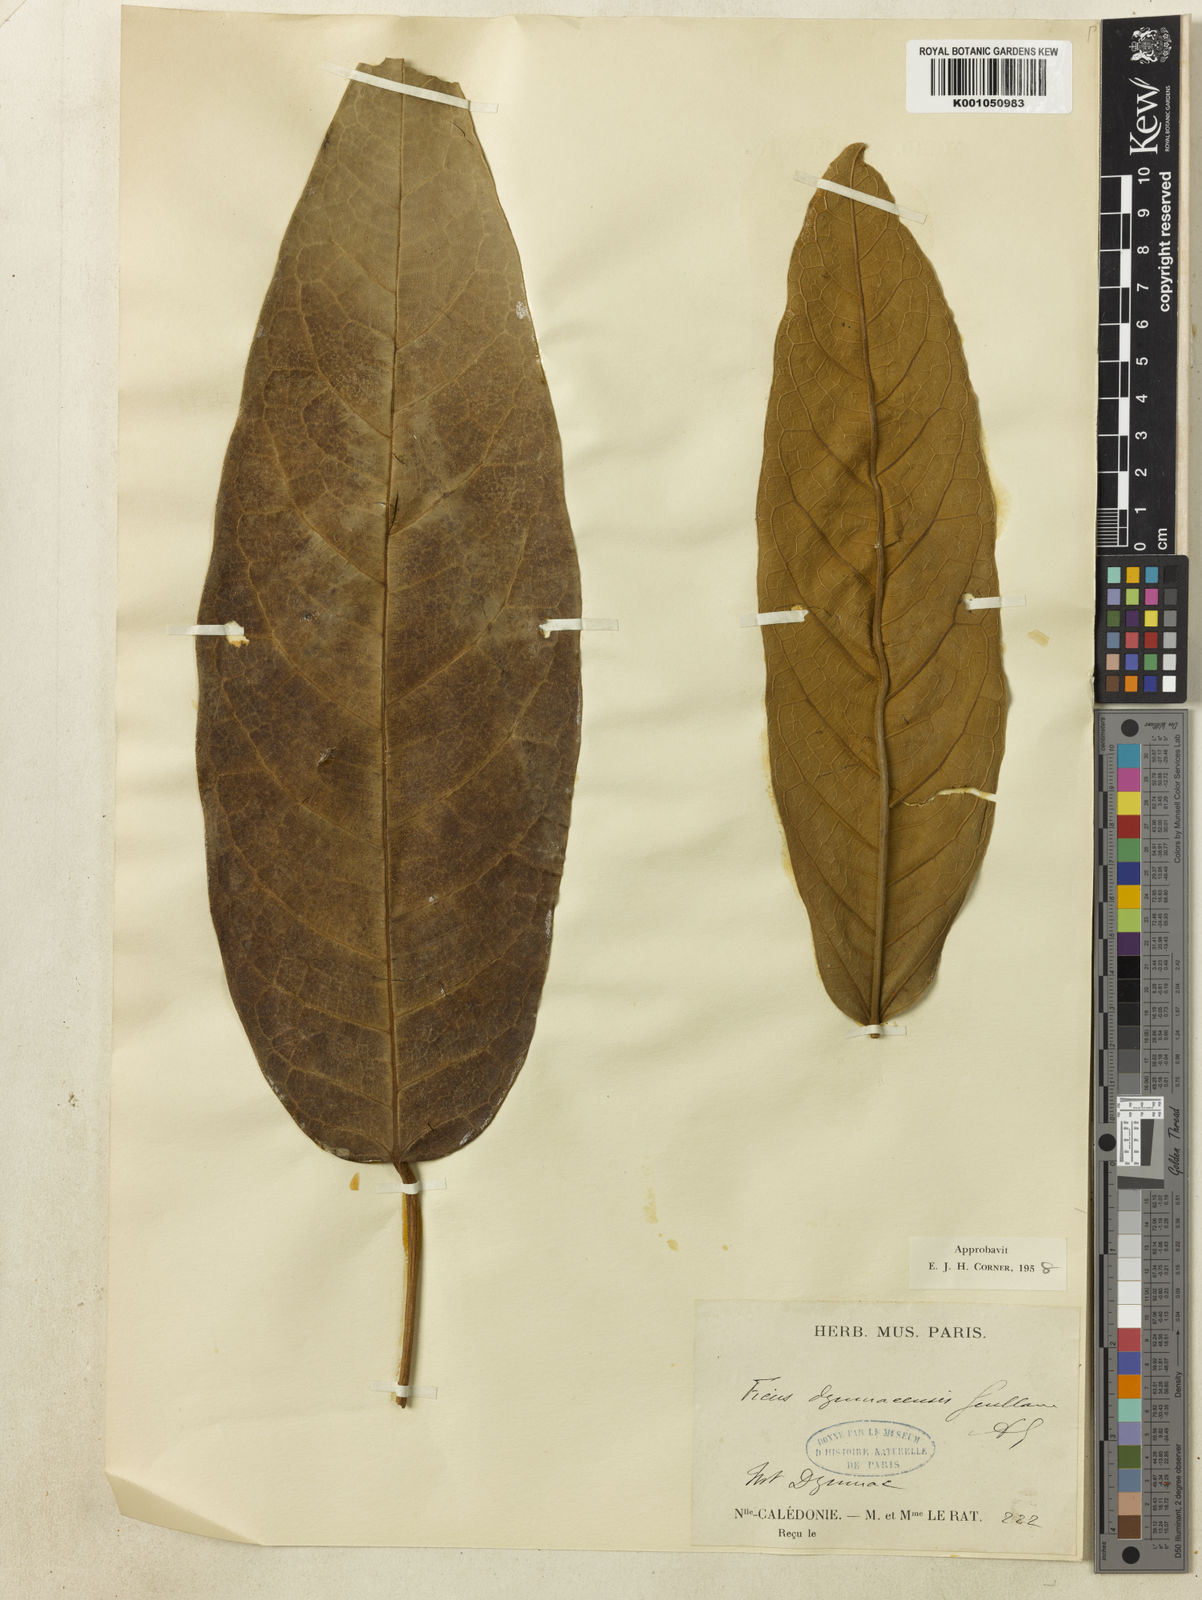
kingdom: Plantae
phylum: Tracheophyta
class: Magnoliopsida
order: Rosales
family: Moraceae
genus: Ficus
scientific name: Ficus dzumacensis
